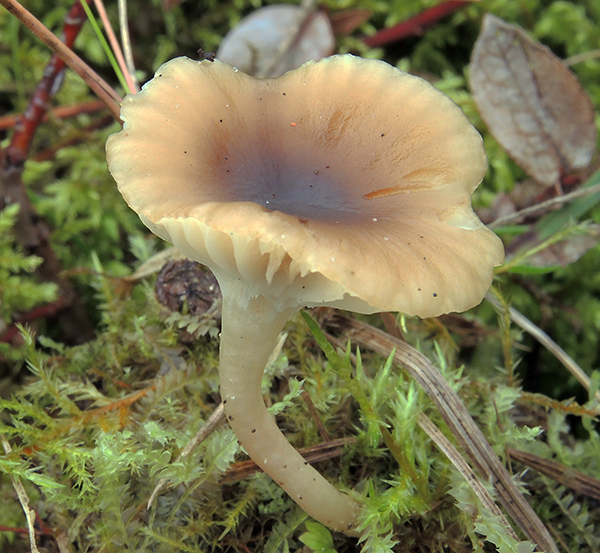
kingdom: Fungi
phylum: Basidiomycota
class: Agaricomycetes
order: Agaricales
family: Hygrophoraceae
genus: Cuphophyllus
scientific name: Cuphophyllus virgineus
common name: brunøjet vokshat
